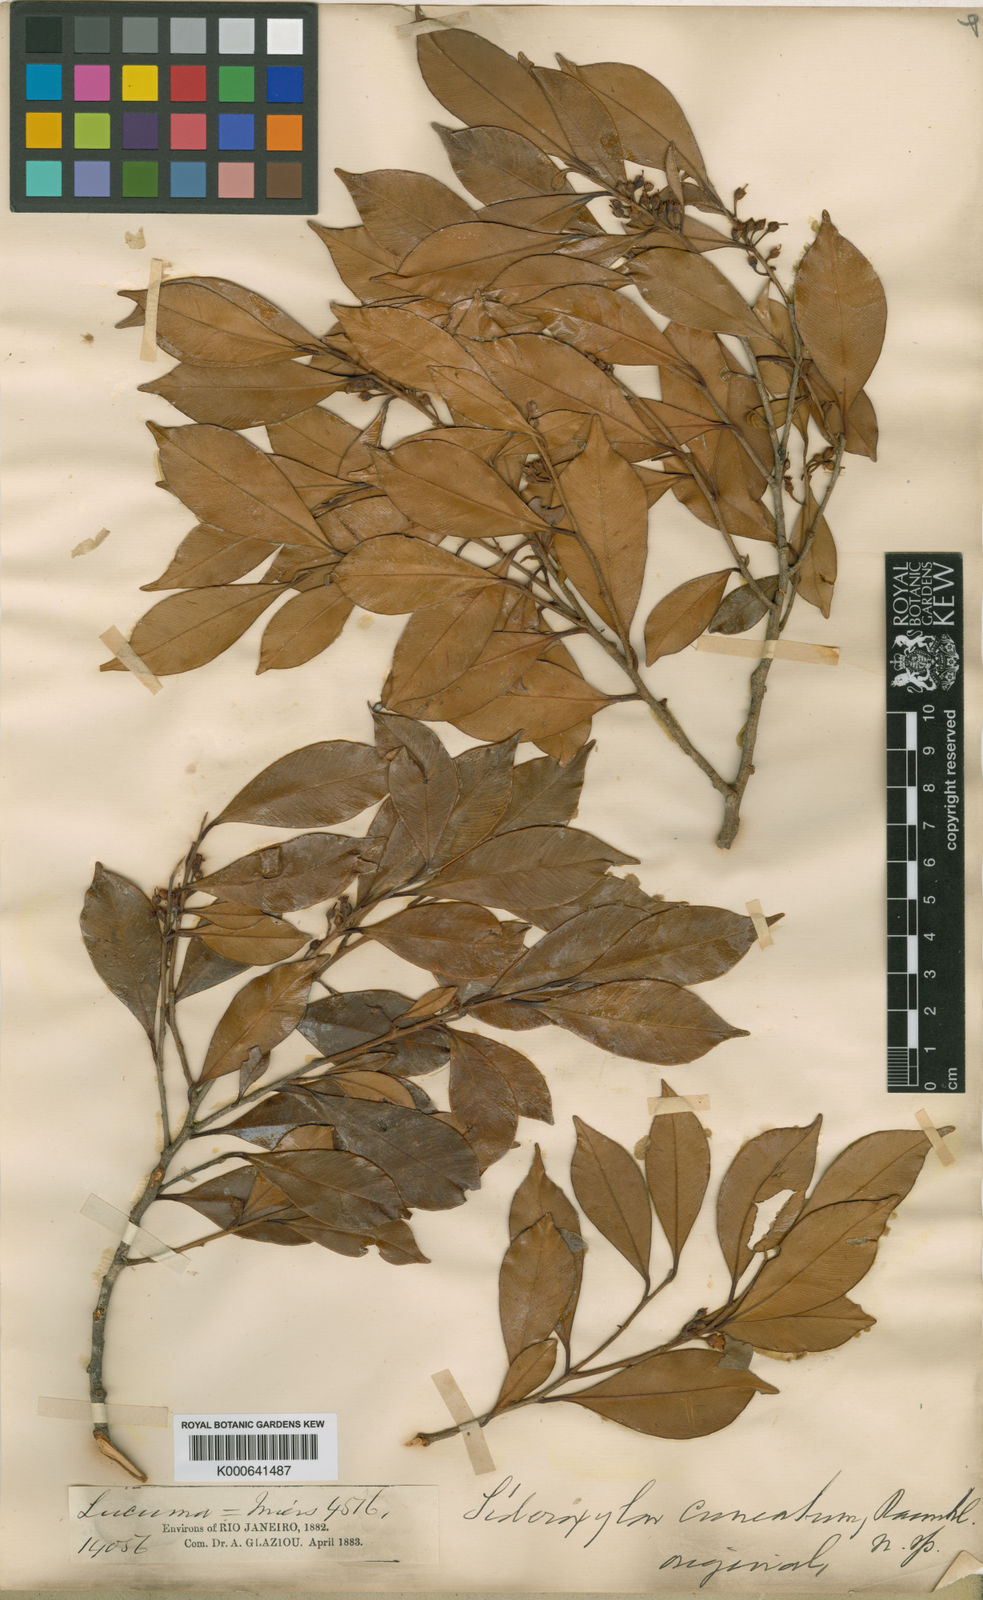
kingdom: Plantae
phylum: Tracheophyta
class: Magnoliopsida
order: Ericales
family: Sapotaceae
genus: Micropholis
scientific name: Micropholis crassipedicellata
